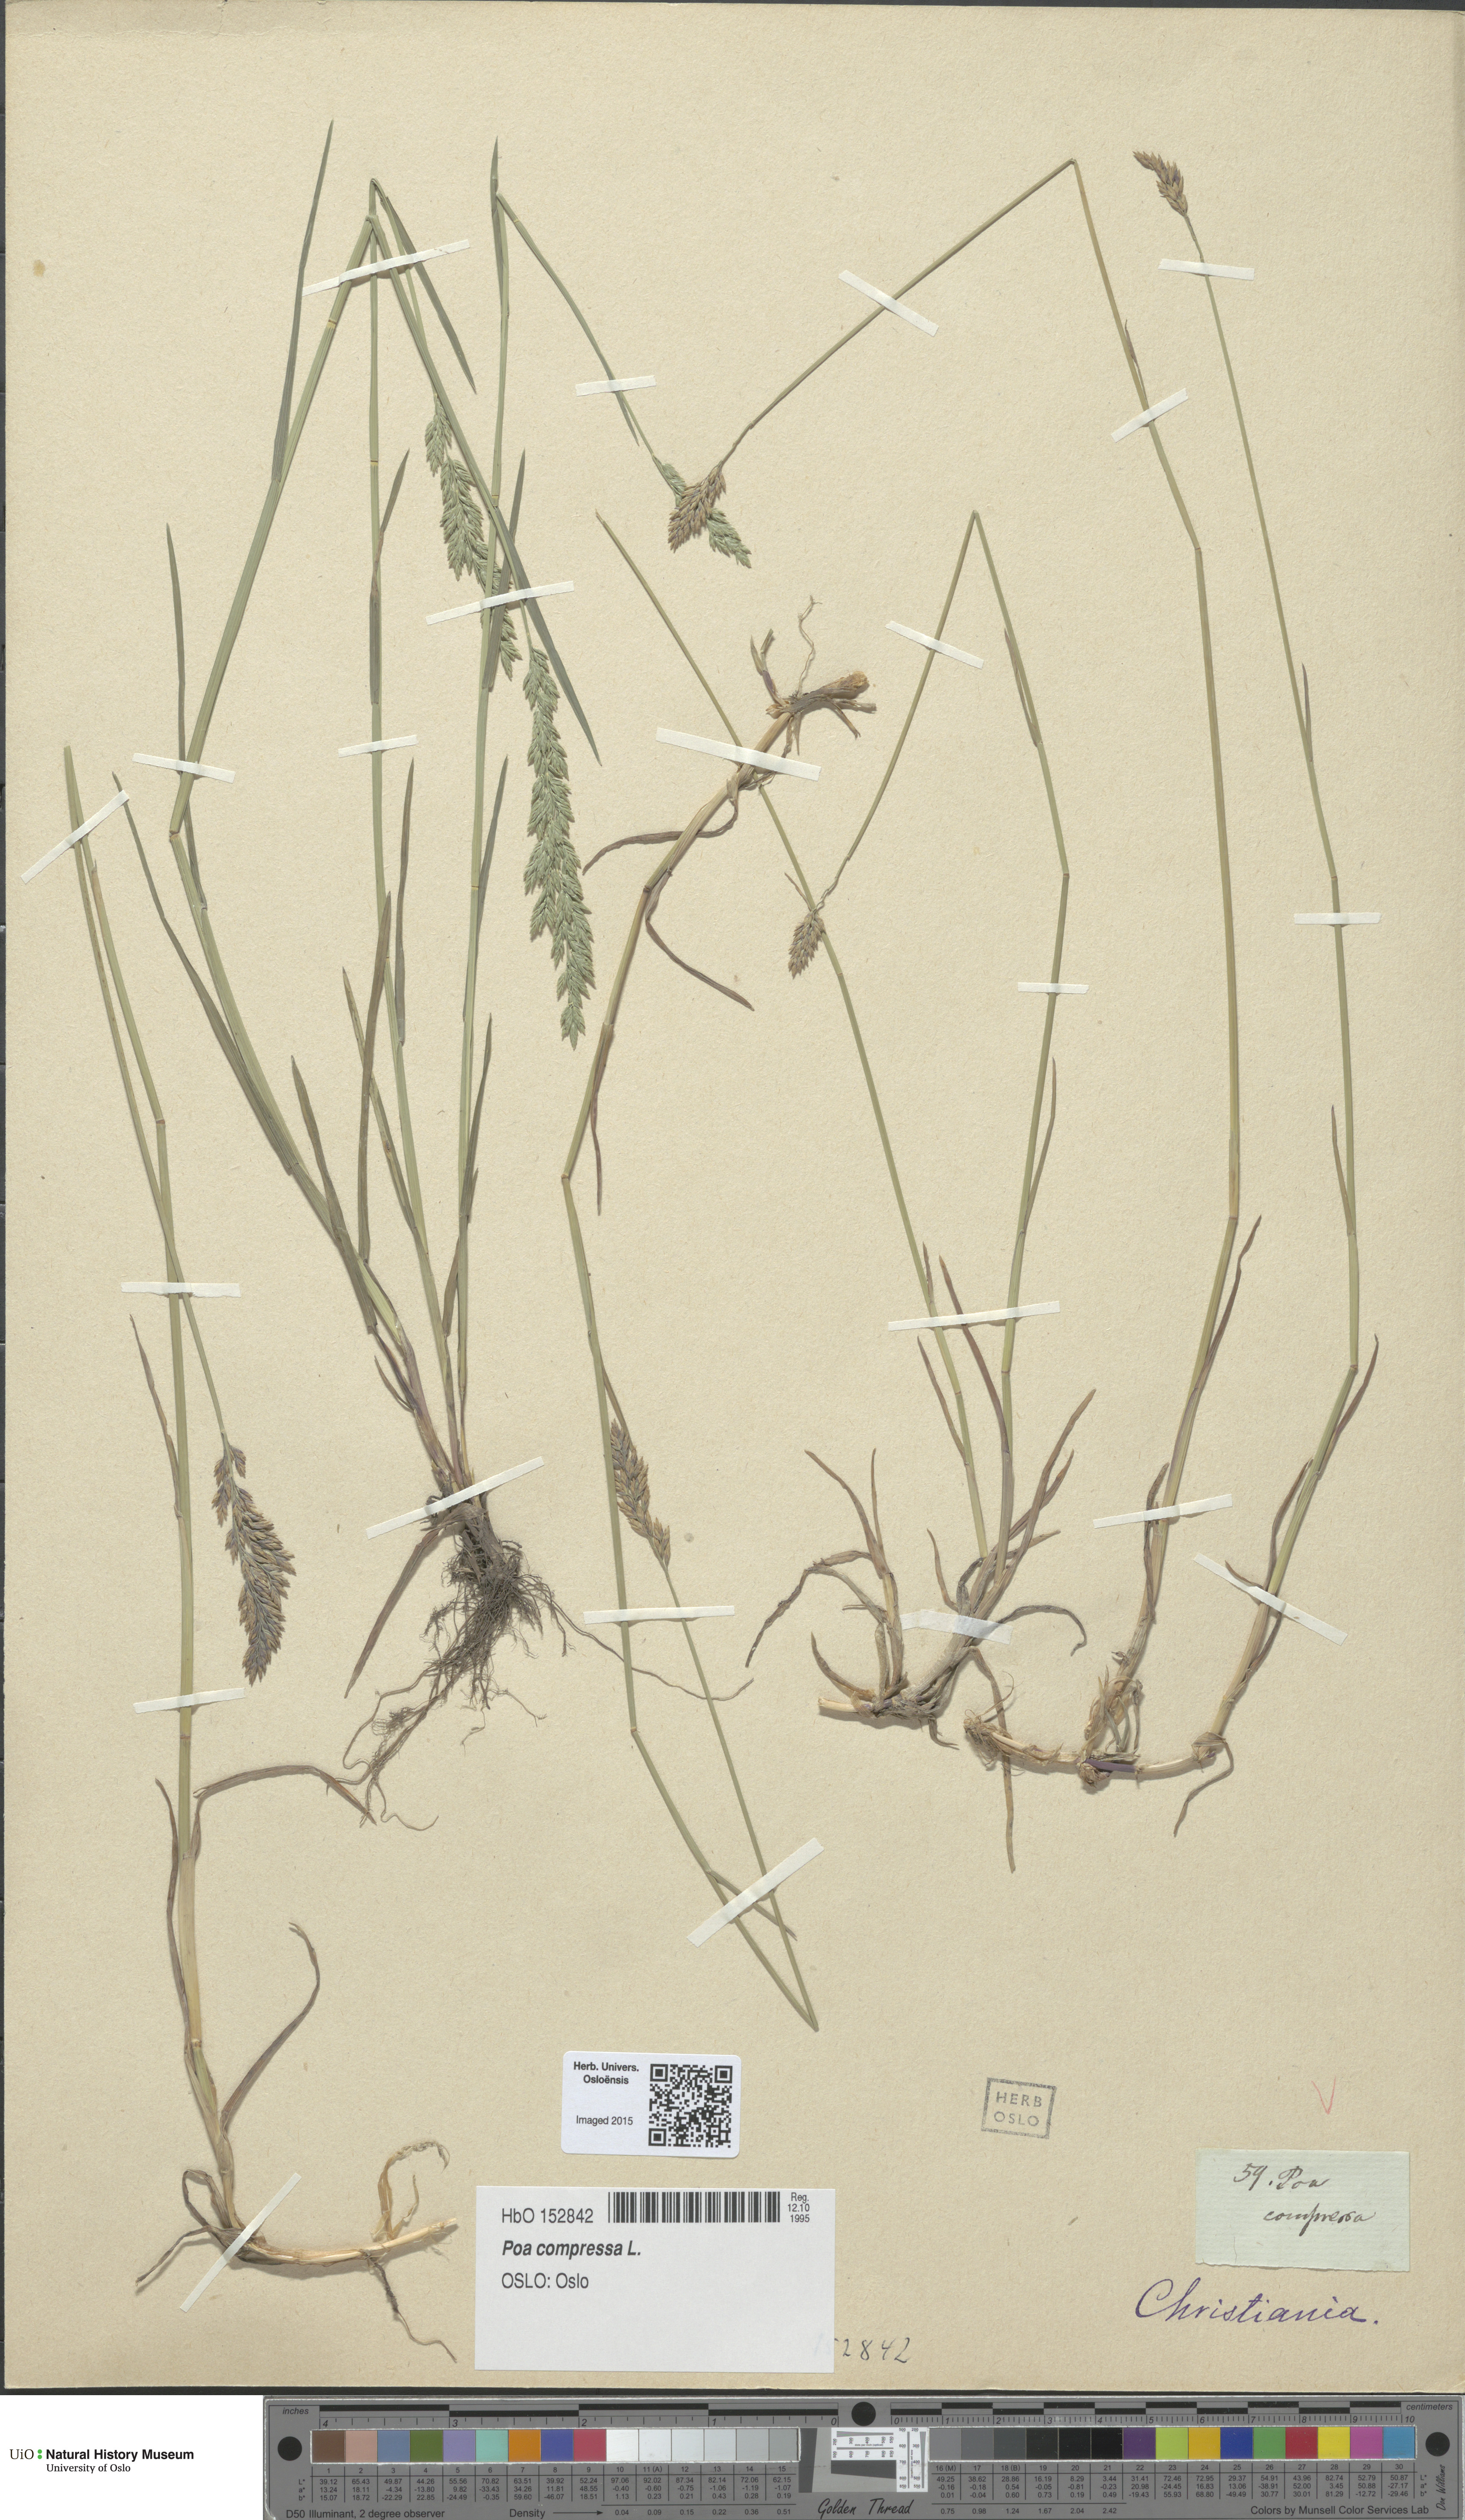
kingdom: Plantae
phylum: Tracheophyta
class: Liliopsida
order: Poales
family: Poaceae
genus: Poa
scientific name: Poa compressa
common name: Canada bluegrass
